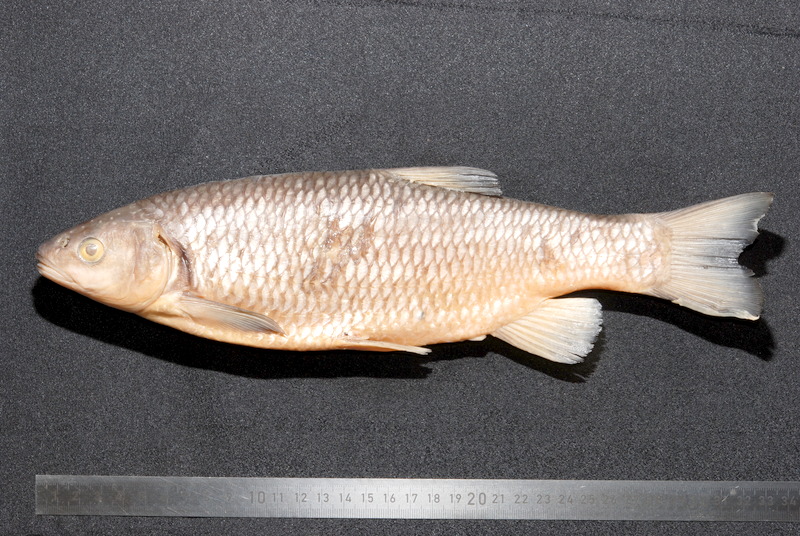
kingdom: Animalia
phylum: Chordata
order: Cypriniformes
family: Cyprinidae
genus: Squalius
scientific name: Squalius cephalus
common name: Chub
